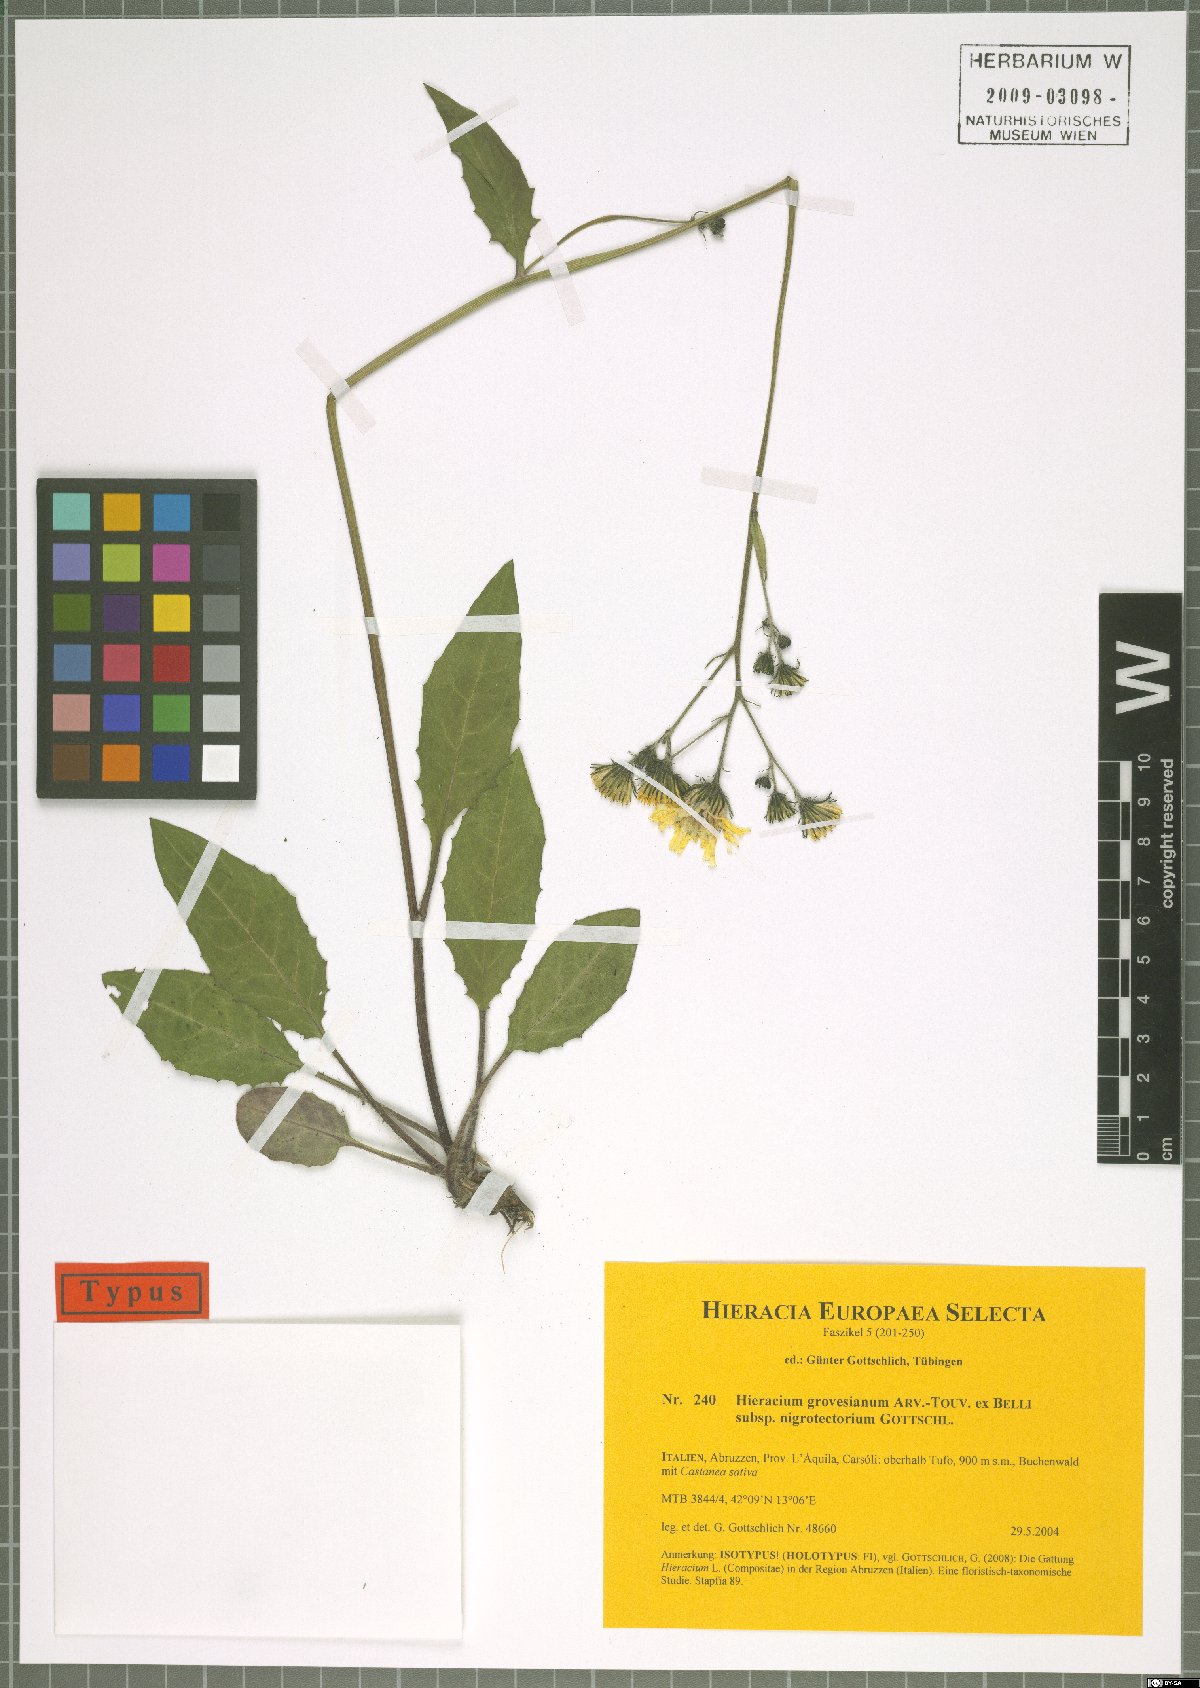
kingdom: Plantae
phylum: Tracheophyta
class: Magnoliopsida
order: Asterales
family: Asteraceae
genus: Hieracium
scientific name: Hieracium grovesianum
